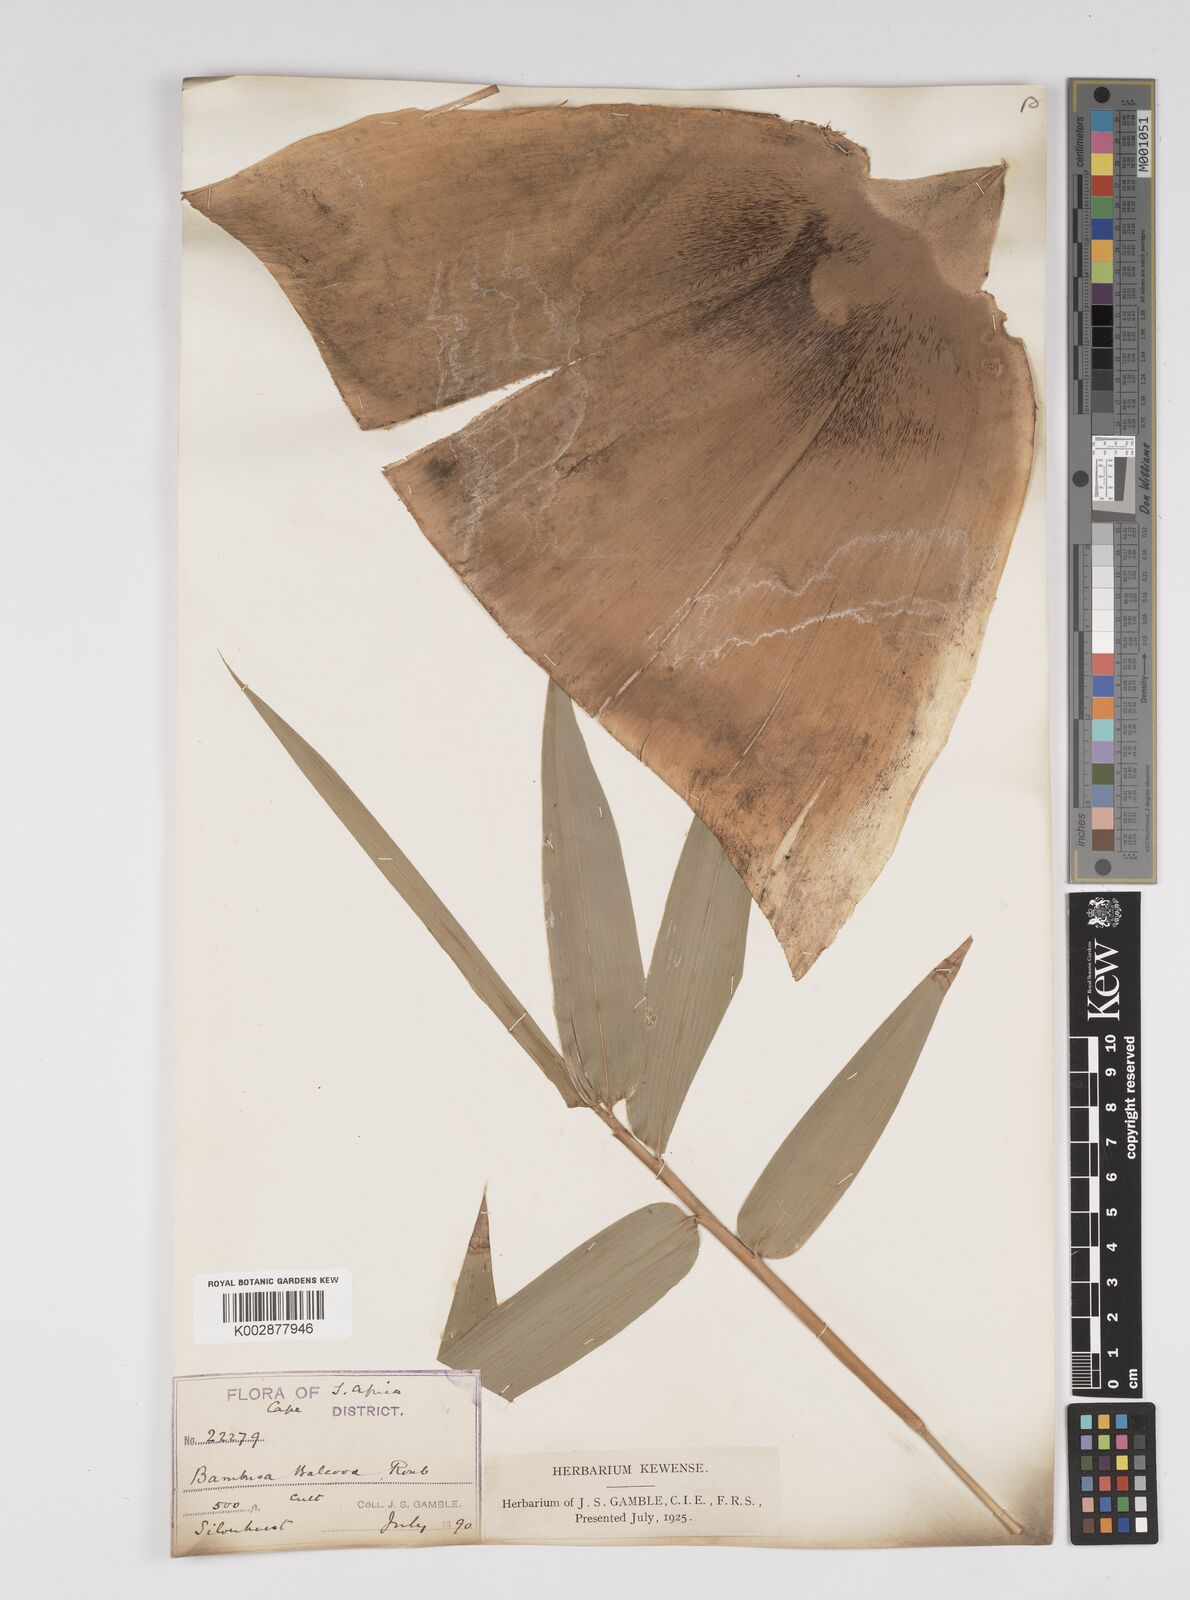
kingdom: Plantae
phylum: Tracheophyta
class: Liliopsida
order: Poales
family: Poaceae
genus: Bambusa
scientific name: Bambusa balcooa
